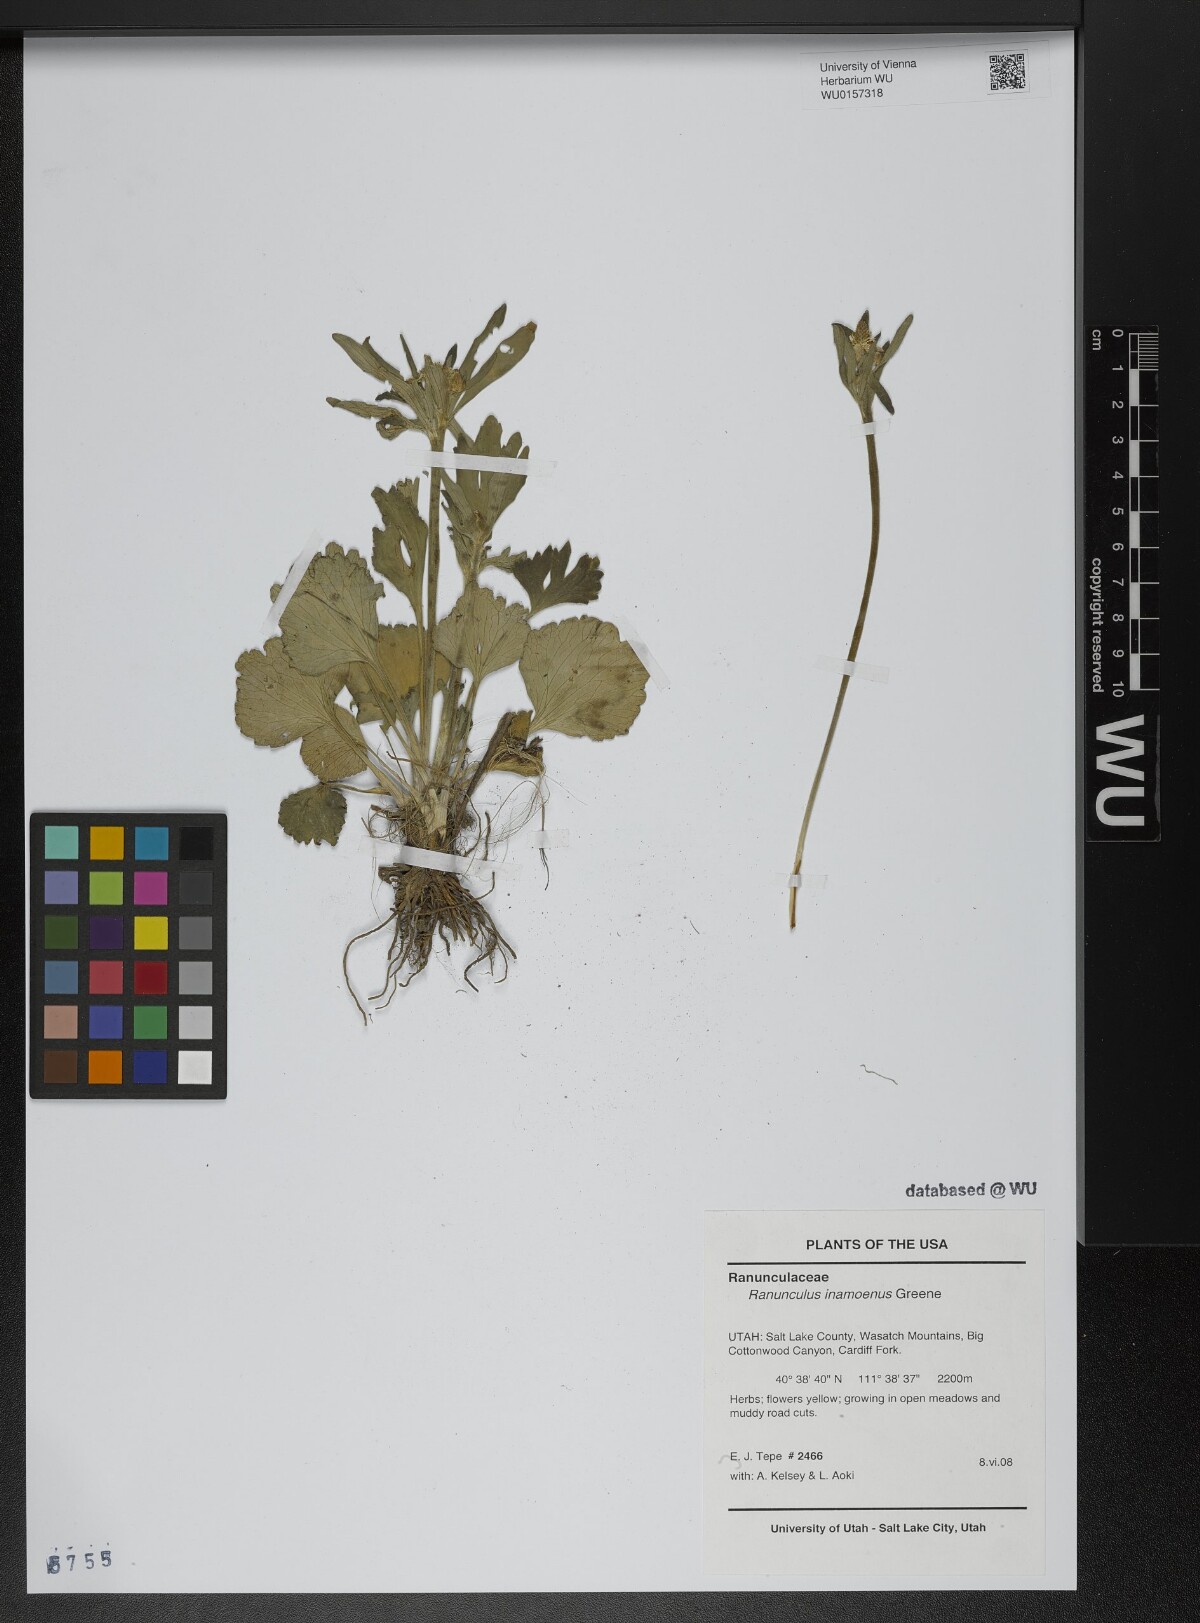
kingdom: Plantae
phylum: Tracheophyta
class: Magnoliopsida
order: Ranunculales
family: Ranunculaceae
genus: Ranunculus
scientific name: Ranunculus inamoenus
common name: Graceful buttercup
